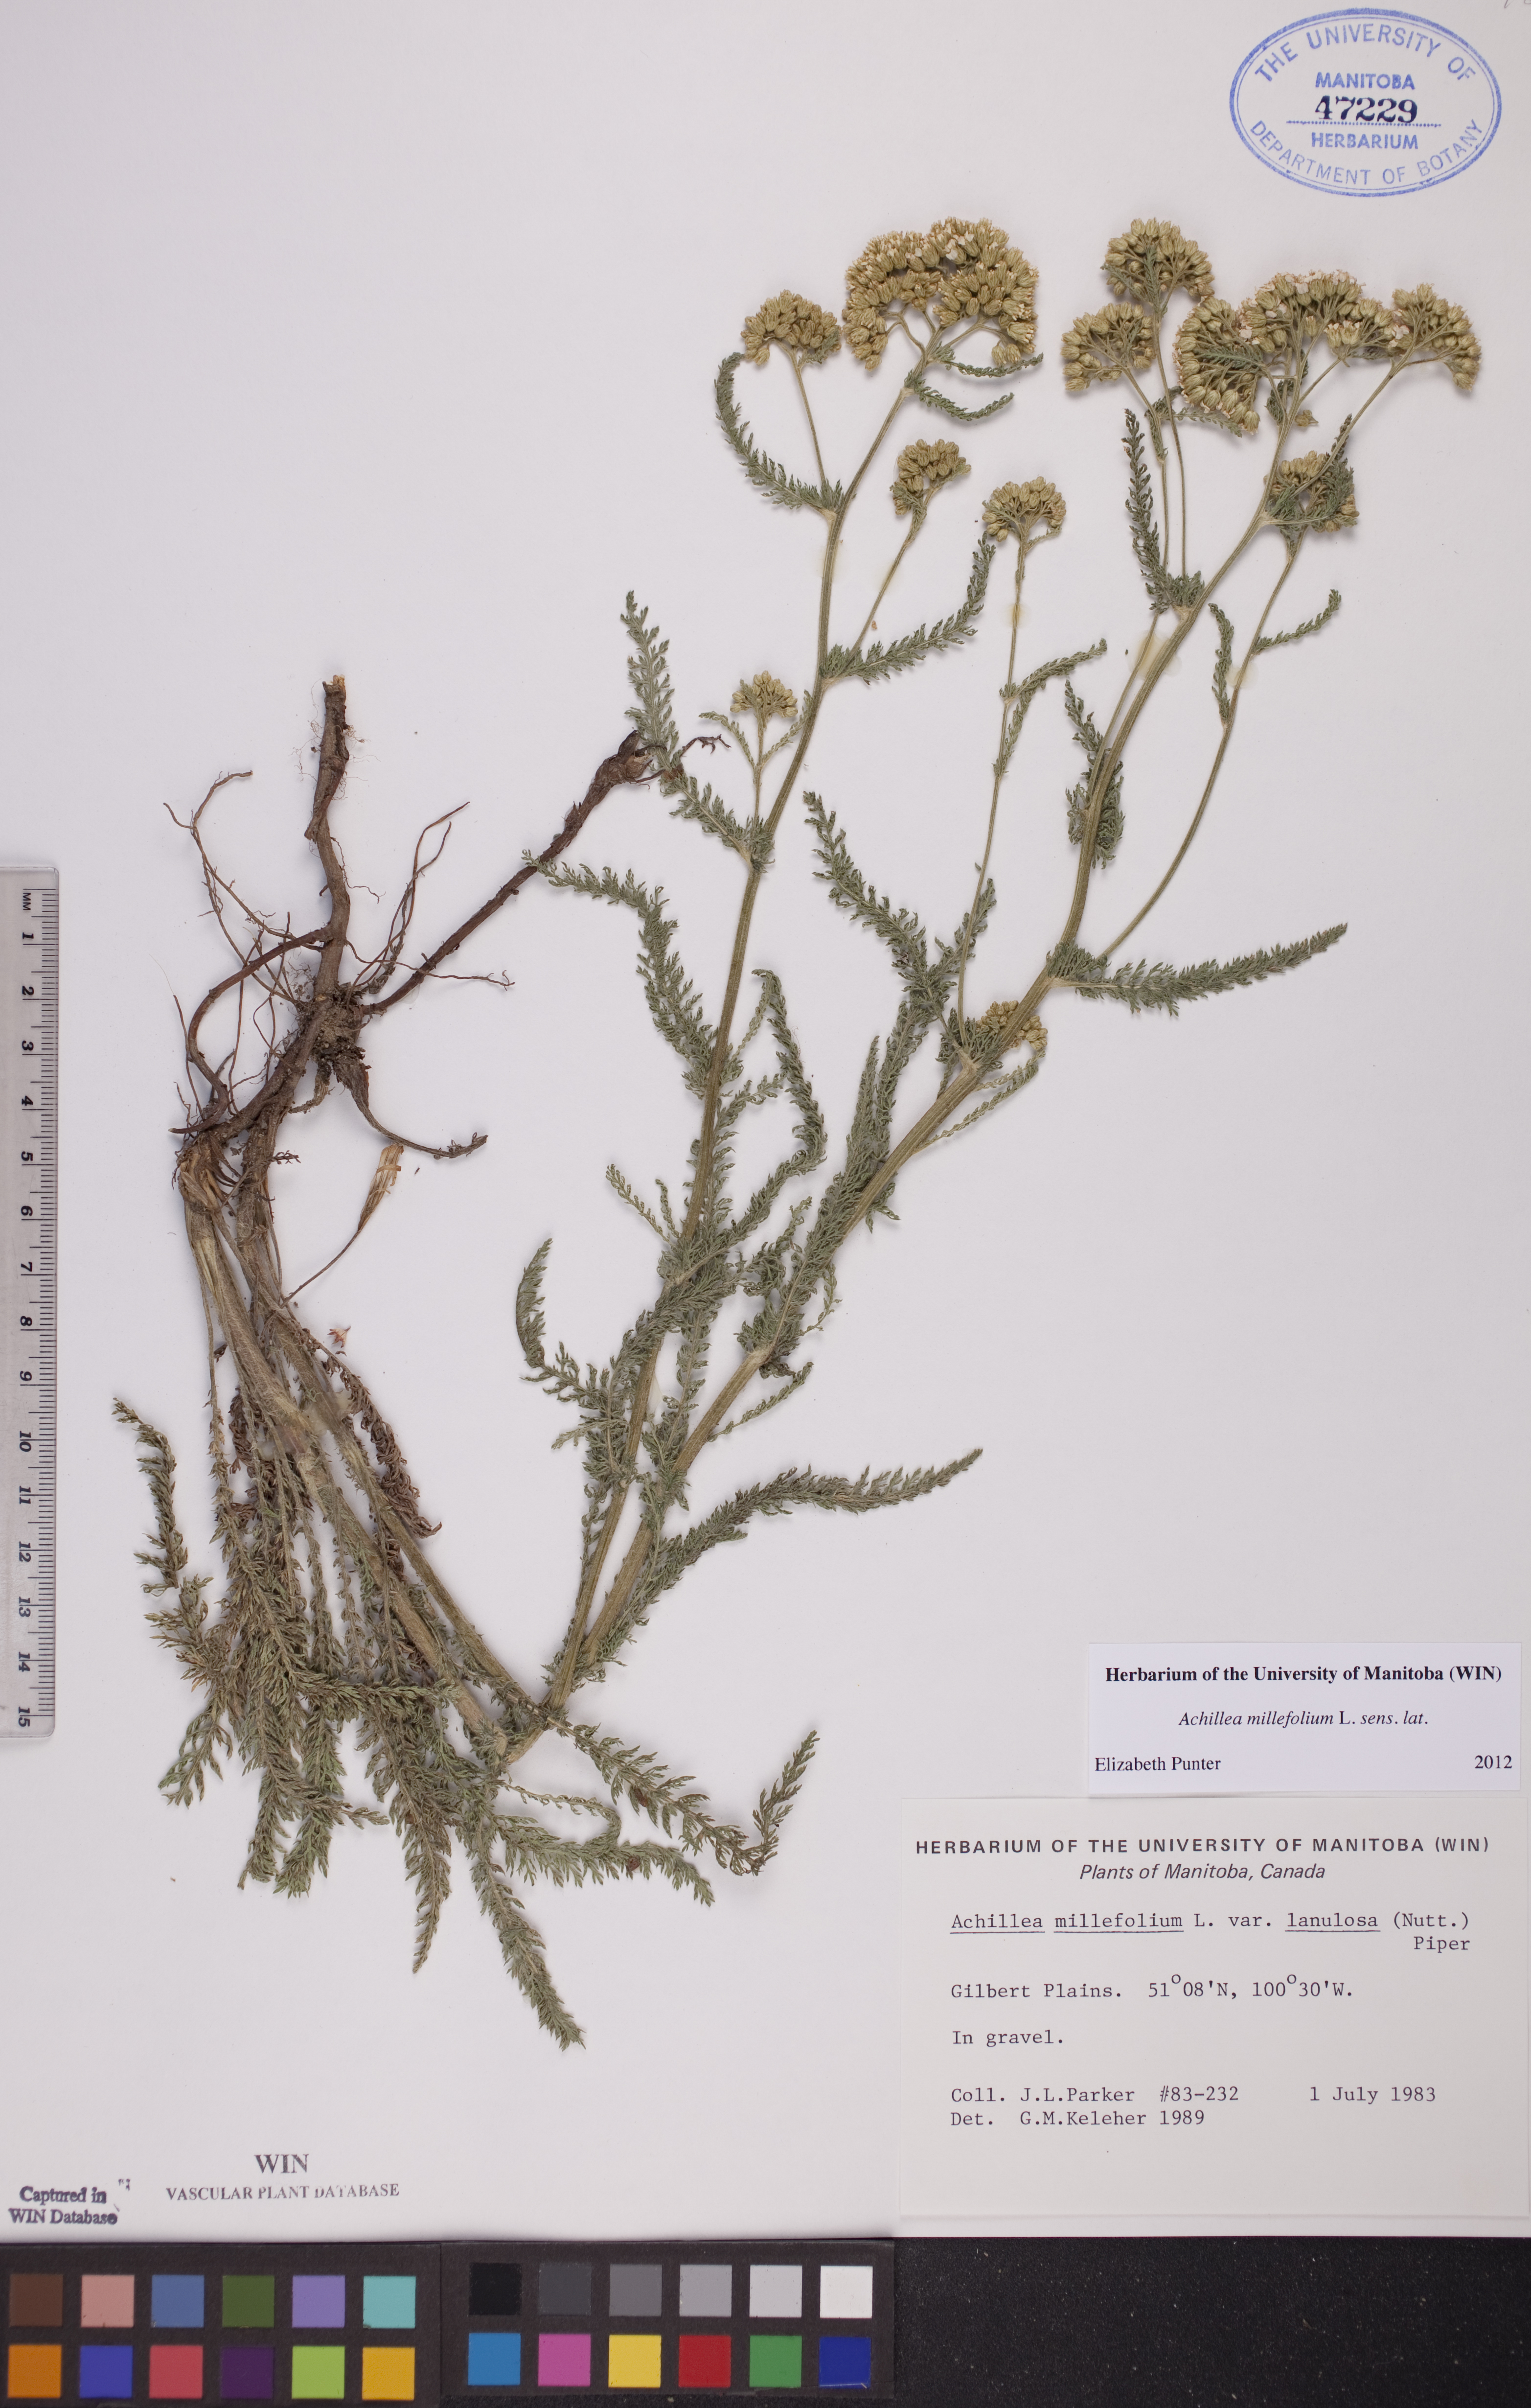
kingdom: Plantae
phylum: Tracheophyta
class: Magnoliopsida
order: Asterales
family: Asteraceae
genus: Achillea
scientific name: Achillea millefolium
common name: Yarrow
